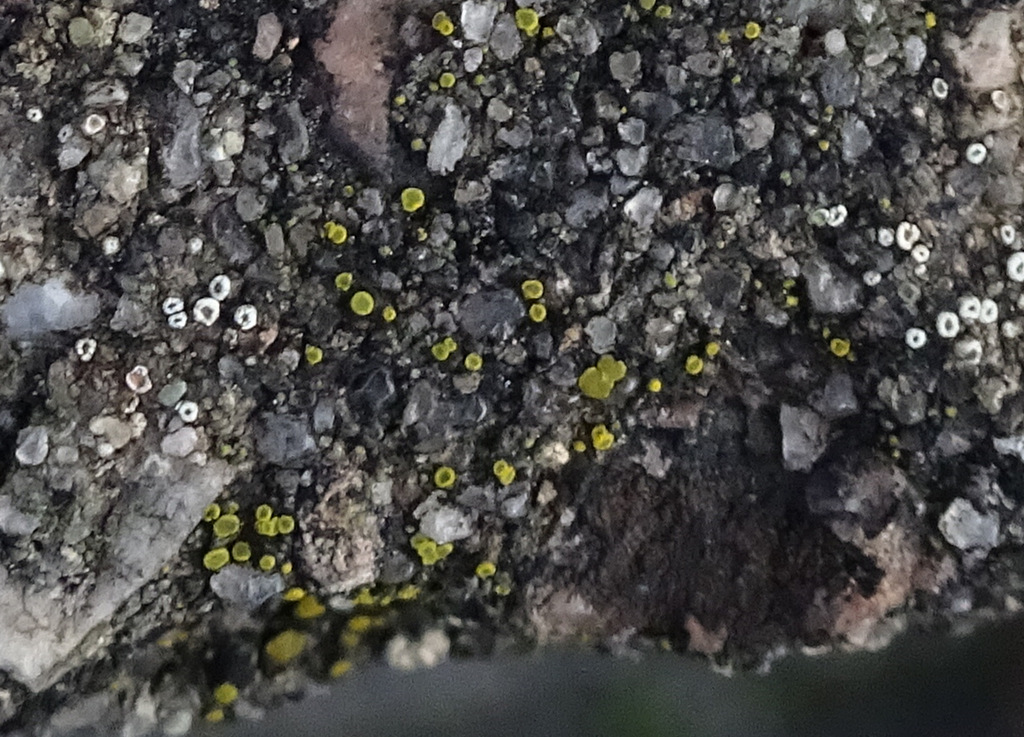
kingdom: Fungi
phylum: Ascomycota
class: Candelariomycetes
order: Candelariales
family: Candelariaceae
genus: Candelariella
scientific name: Candelariella aurella
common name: liden æggeblommelav
